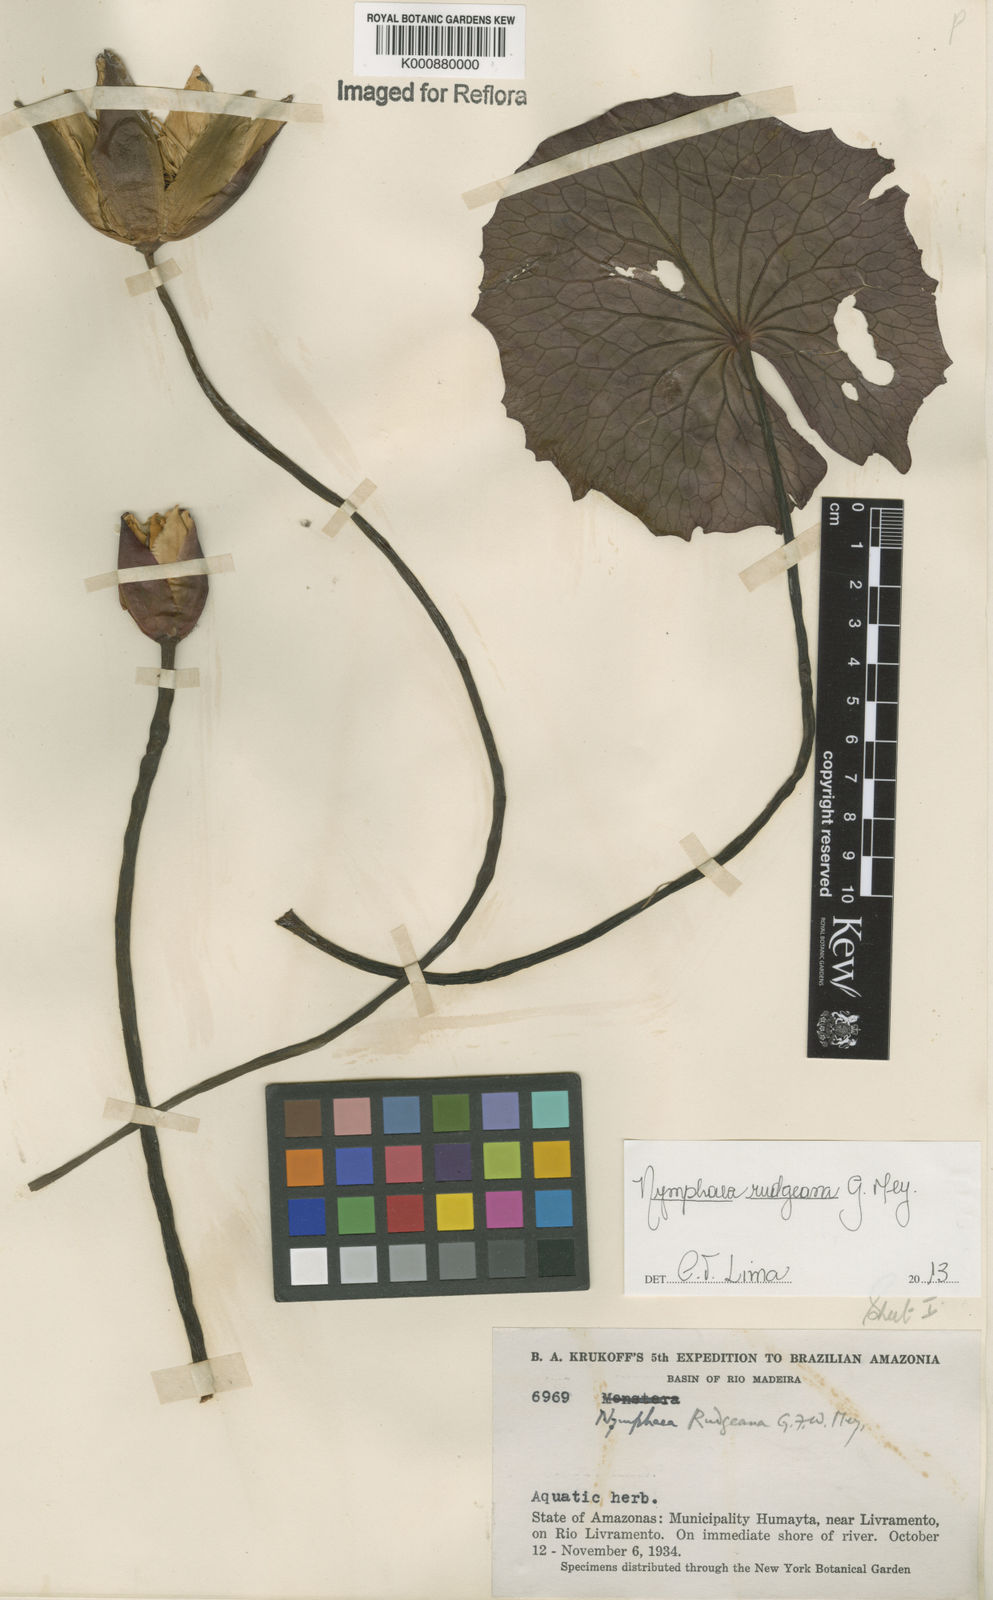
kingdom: Plantae
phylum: Tracheophyta
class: Magnoliopsida
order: Nymphaeales
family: Nymphaeaceae
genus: Nymphaea
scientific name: Nymphaea rudgeana
